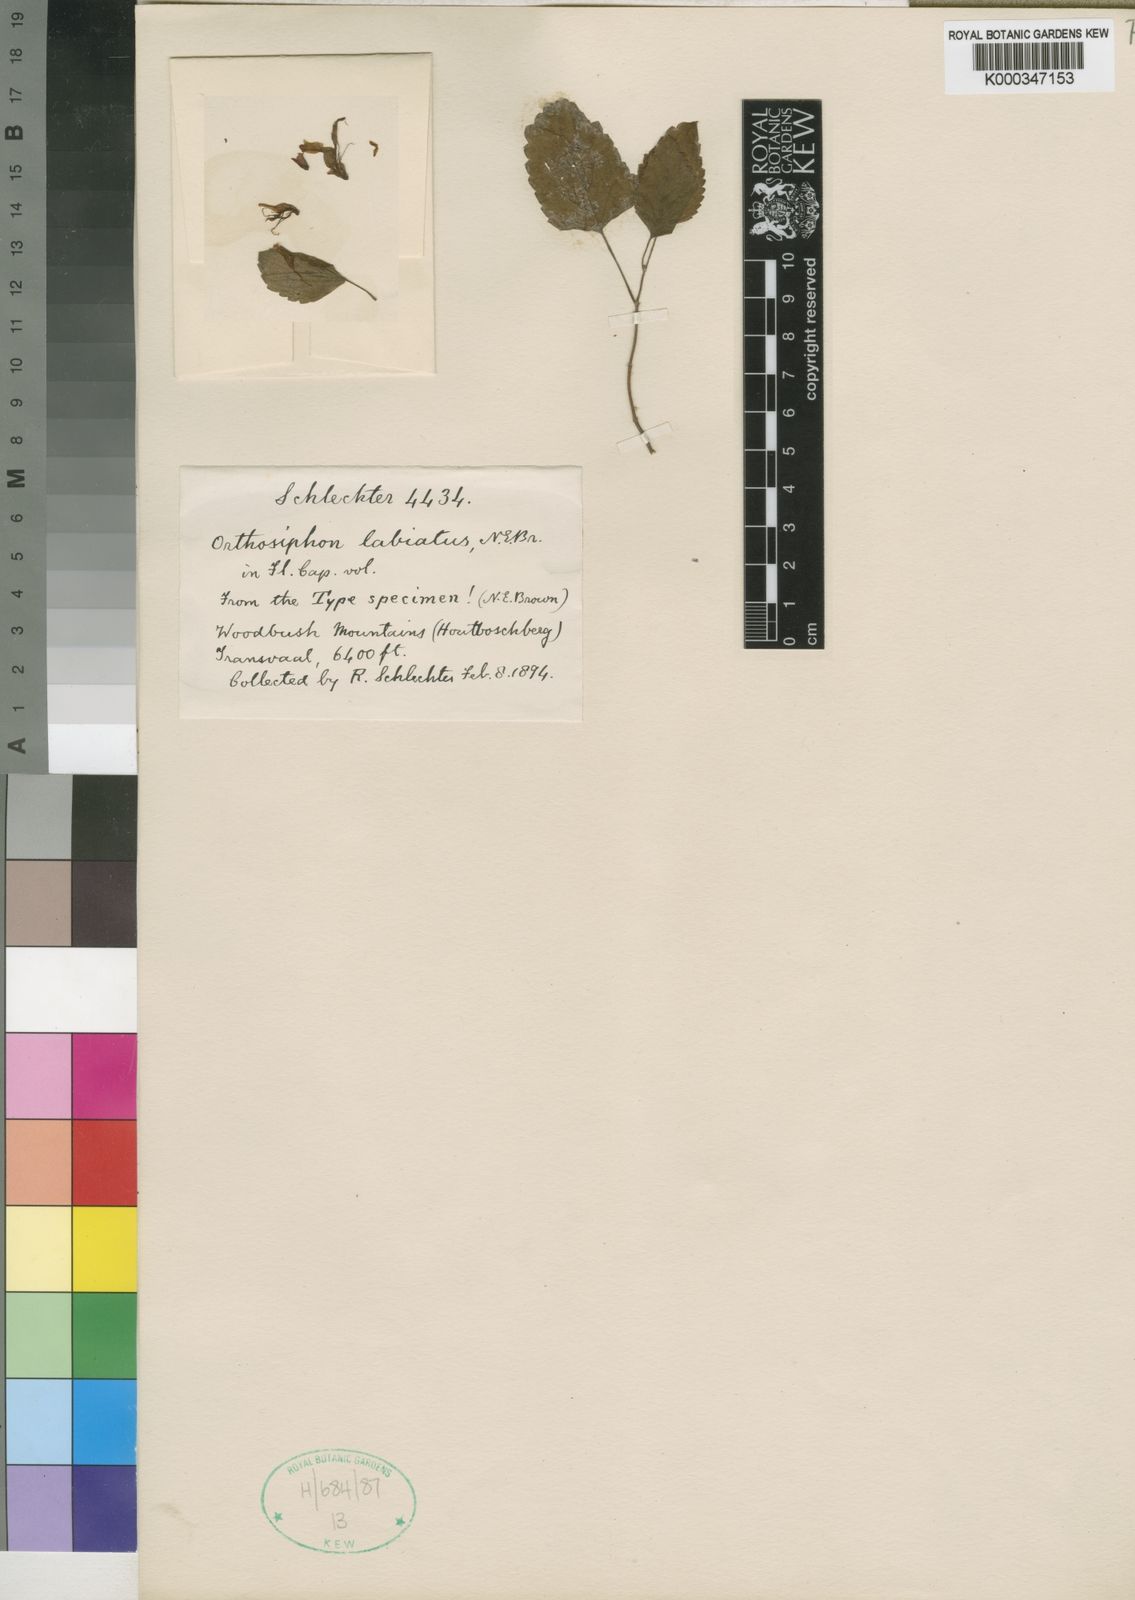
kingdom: Plantae
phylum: Tracheophyta
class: Magnoliopsida
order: Lamiales
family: Lamiaceae
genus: Ocimum
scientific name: Ocimum labiatum
